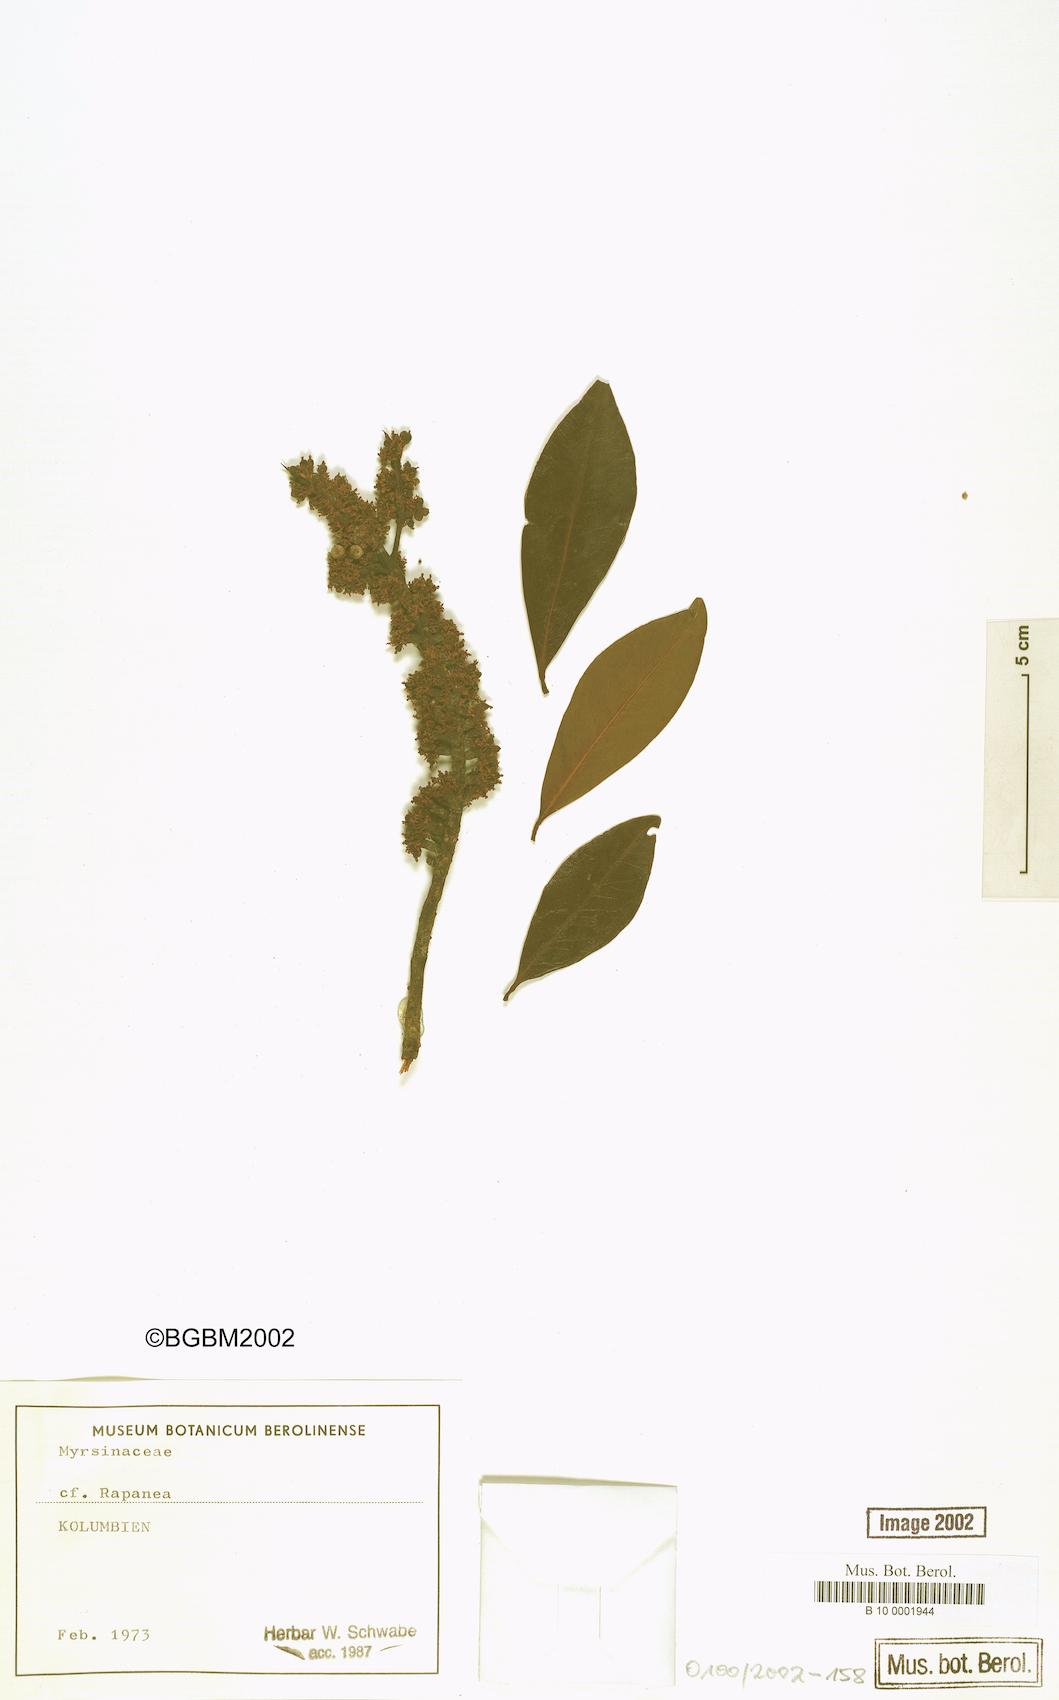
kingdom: Plantae
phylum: Tracheophyta
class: Magnoliopsida
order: Ericales
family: Primulaceae
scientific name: Primulaceae
